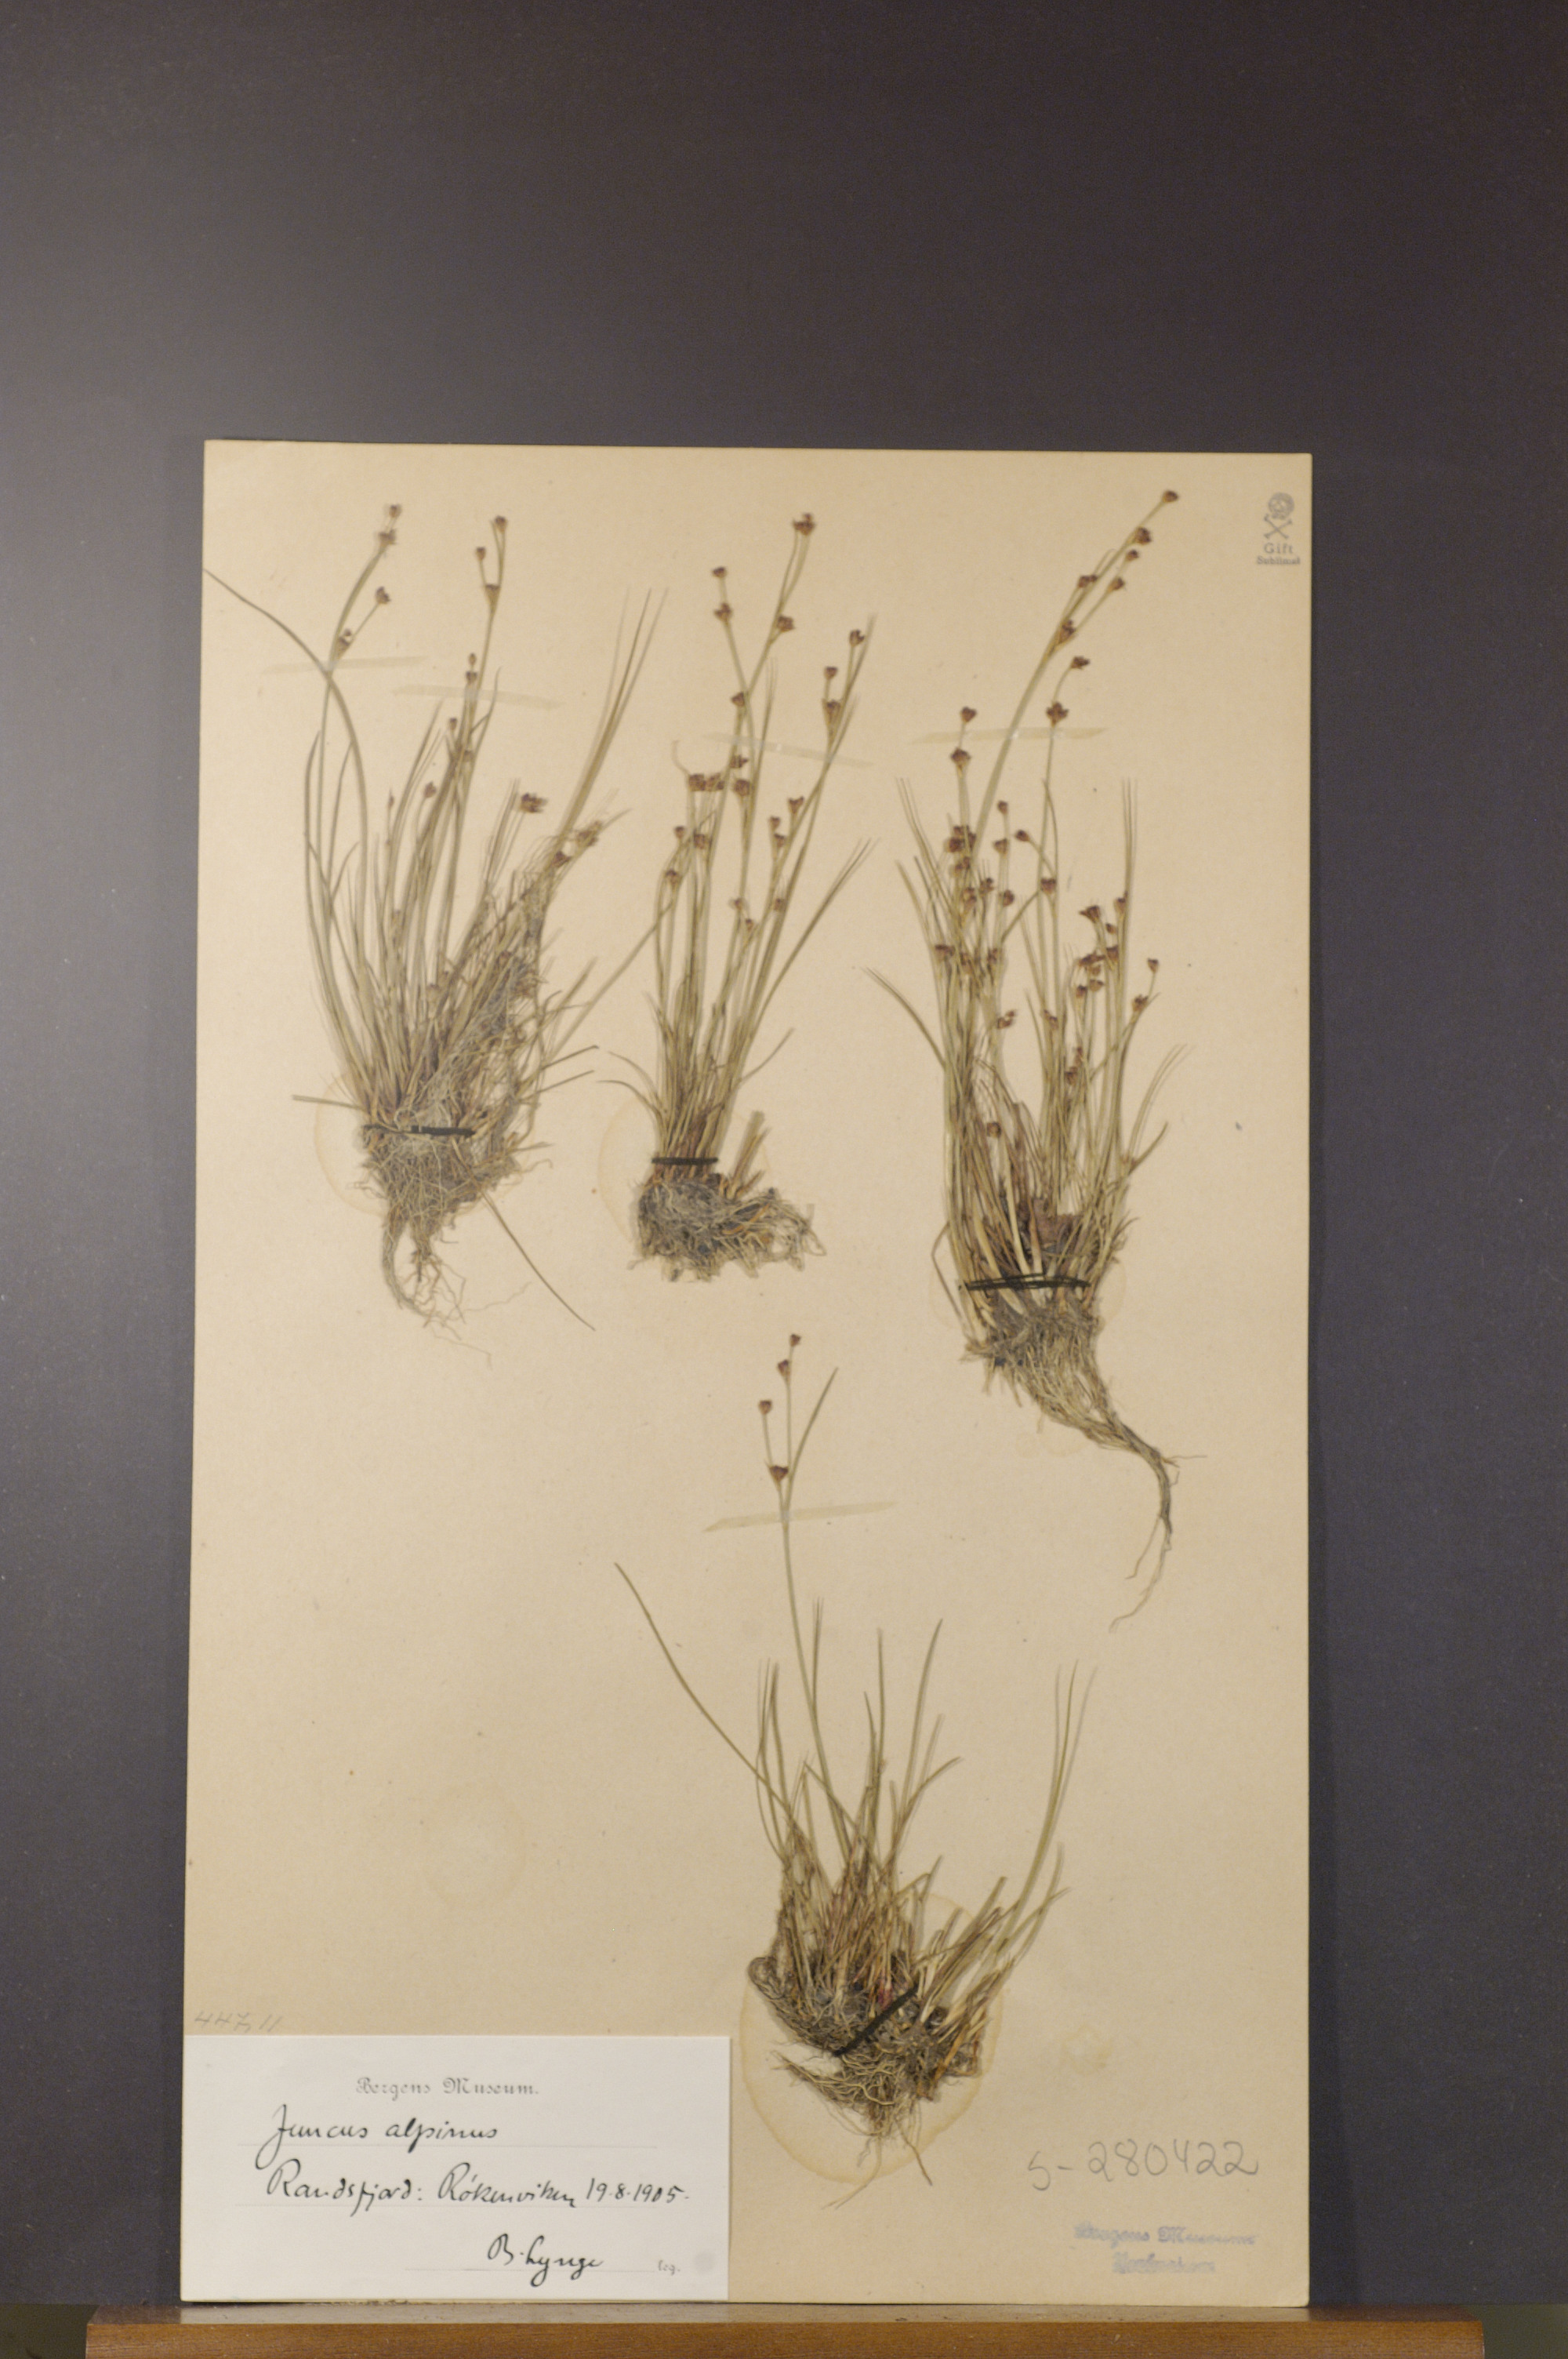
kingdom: Plantae
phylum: Tracheophyta
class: Liliopsida
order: Poales
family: Juncaceae
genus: Juncus
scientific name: Juncus alpinoarticulatus
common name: Alpine rush
